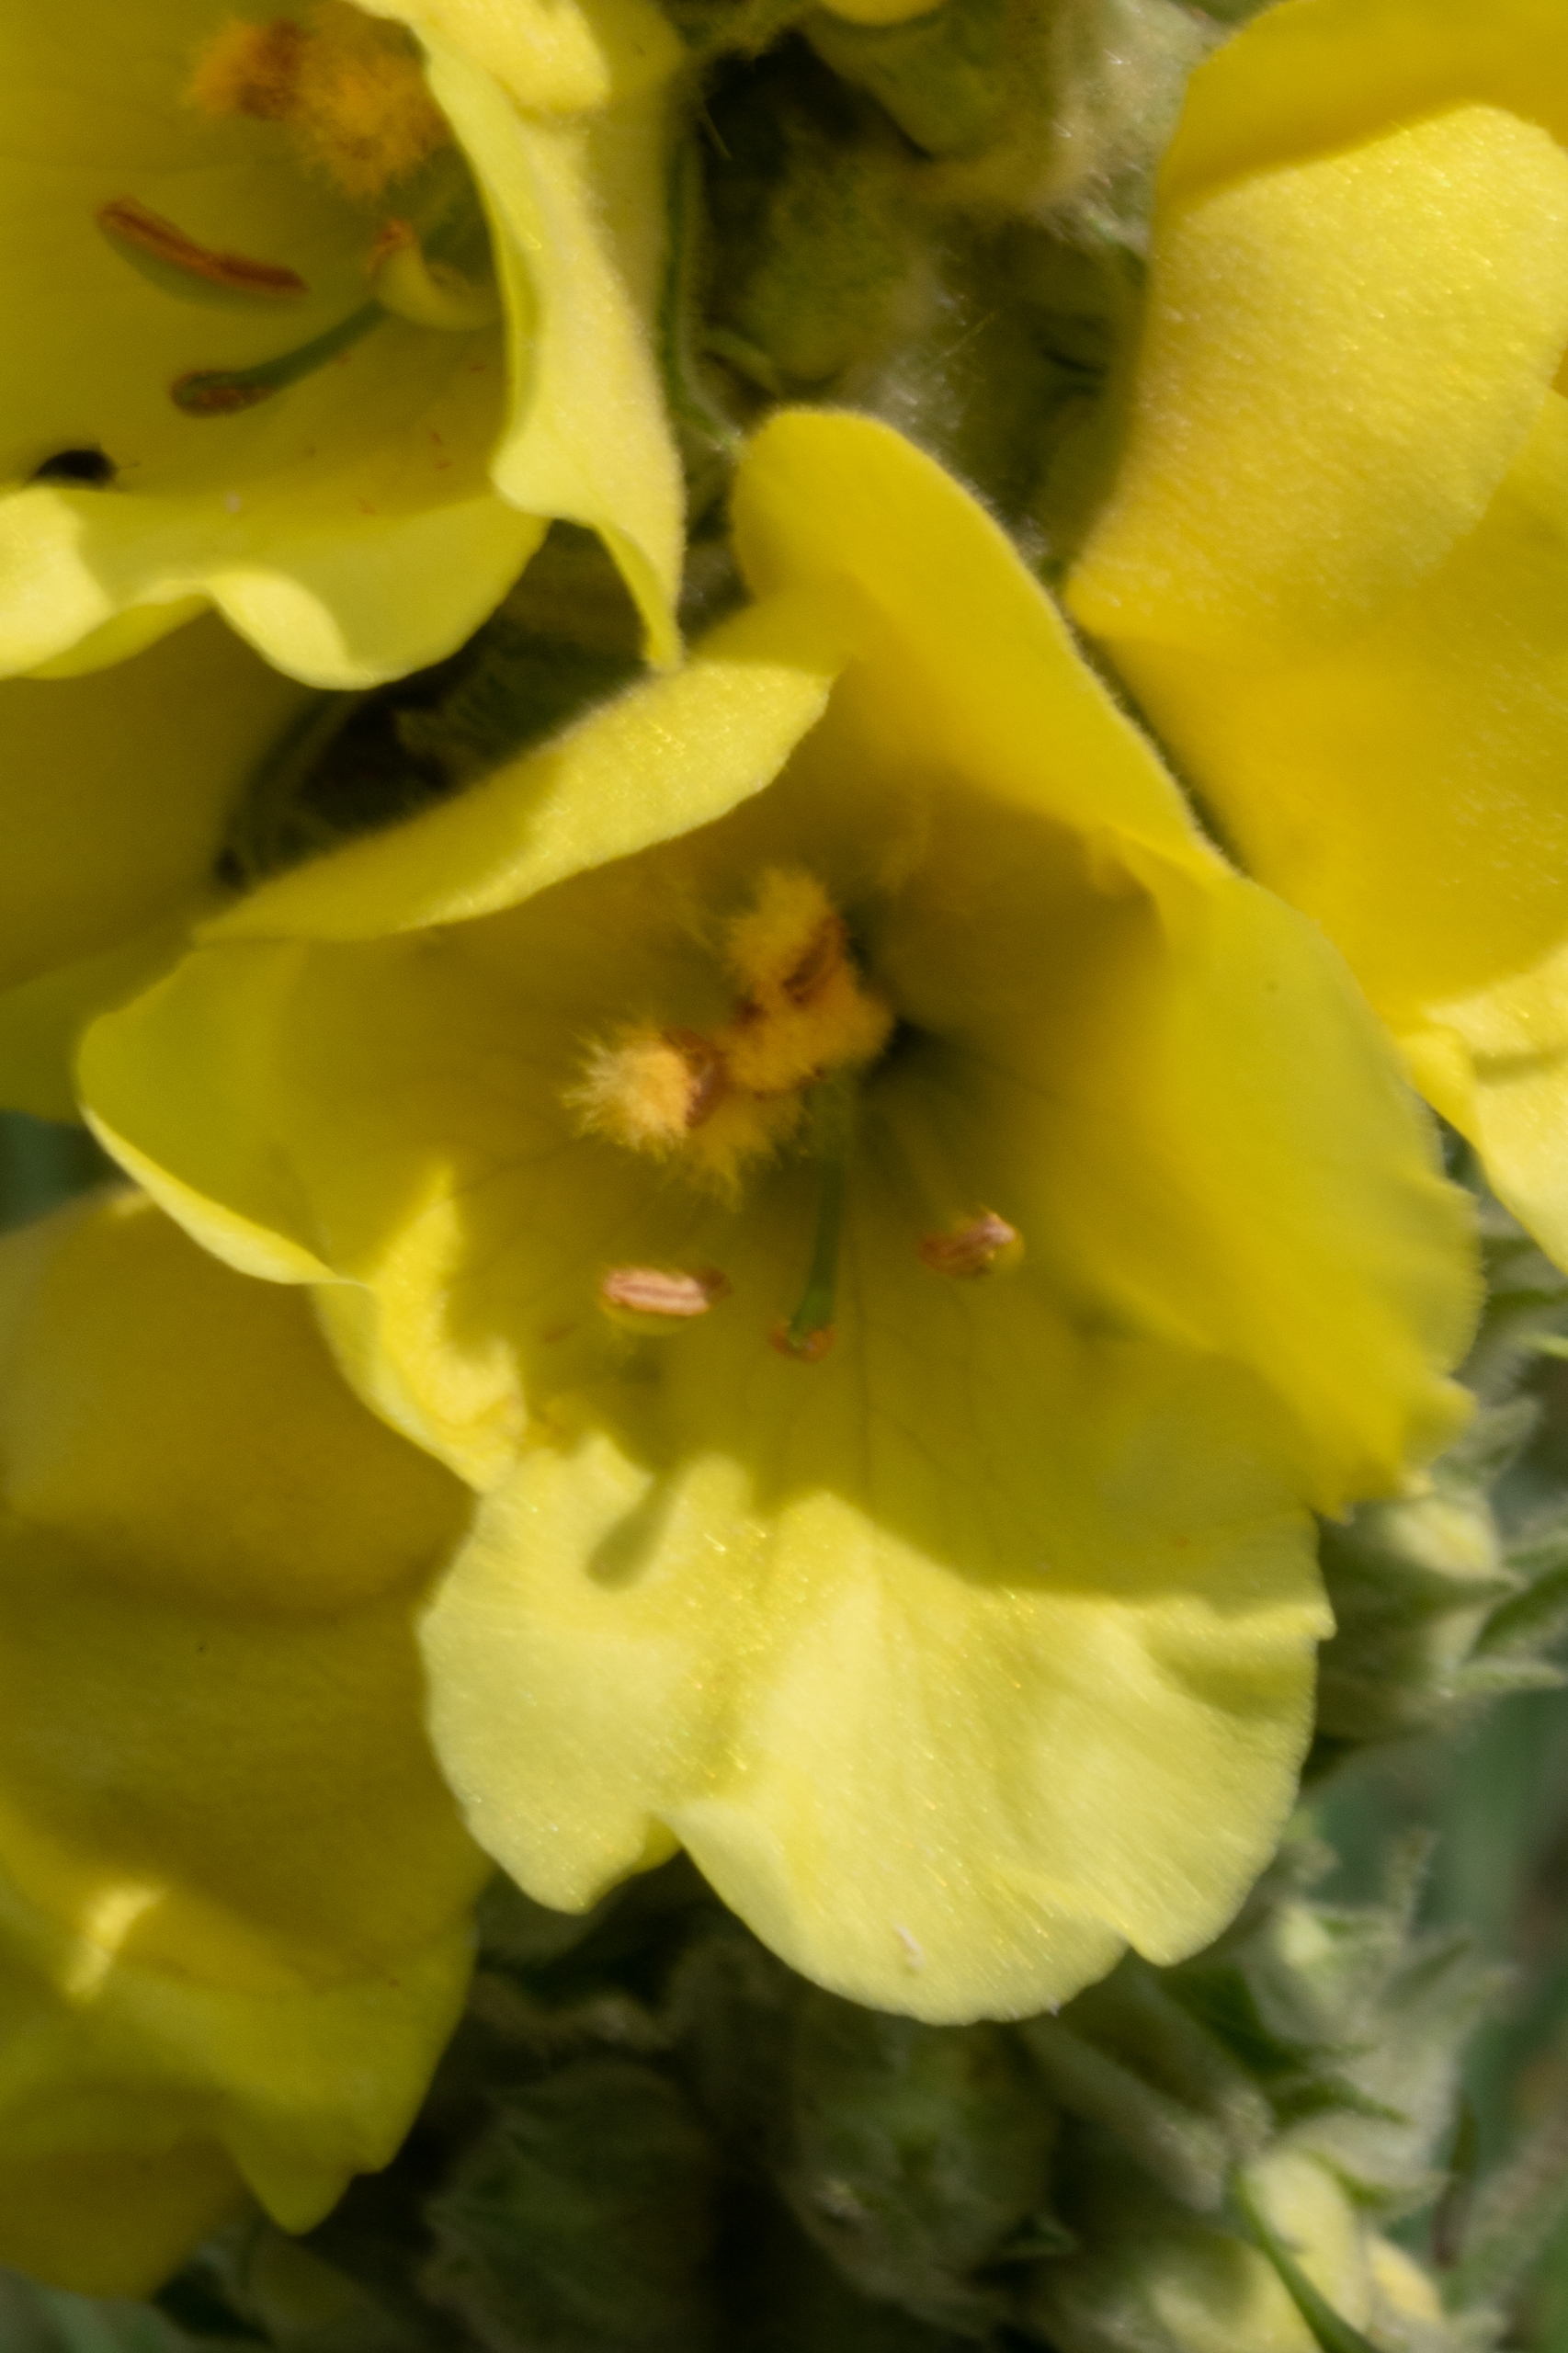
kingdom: Plantae
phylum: Tracheophyta
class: Magnoliopsida
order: Lamiales
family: Scrophulariaceae
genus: Verbascum
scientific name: Verbascum densiflorum
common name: Uldbladet kongelys
